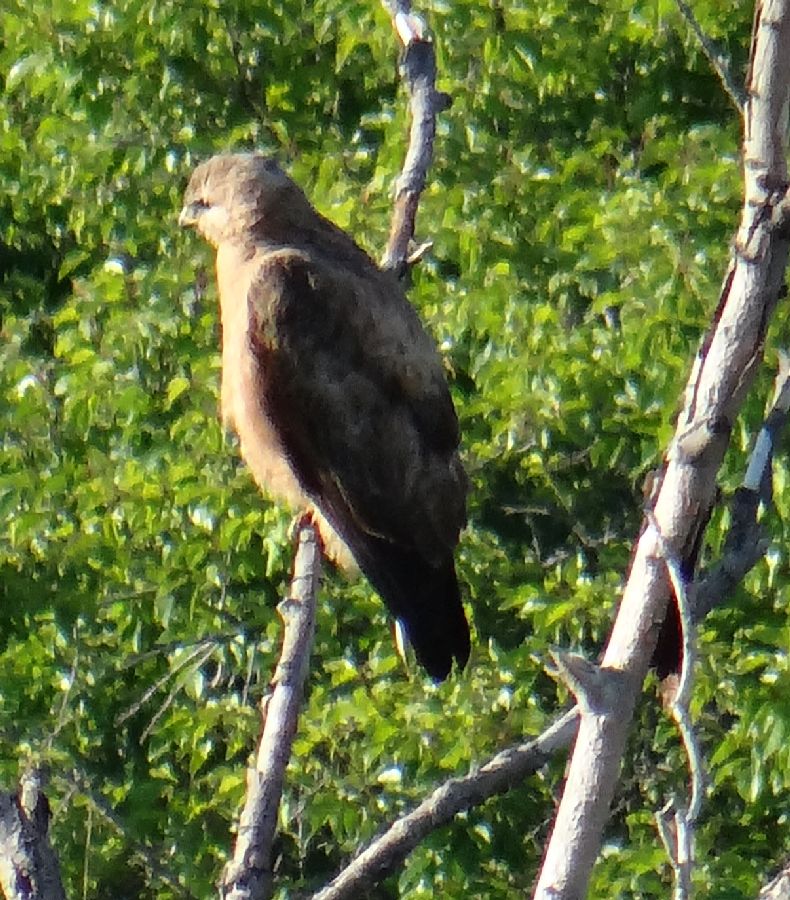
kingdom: Animalia
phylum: Chordata
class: Aves
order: Accipitriformes
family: Accipitridae
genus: Buteo
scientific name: Buteo buteo
